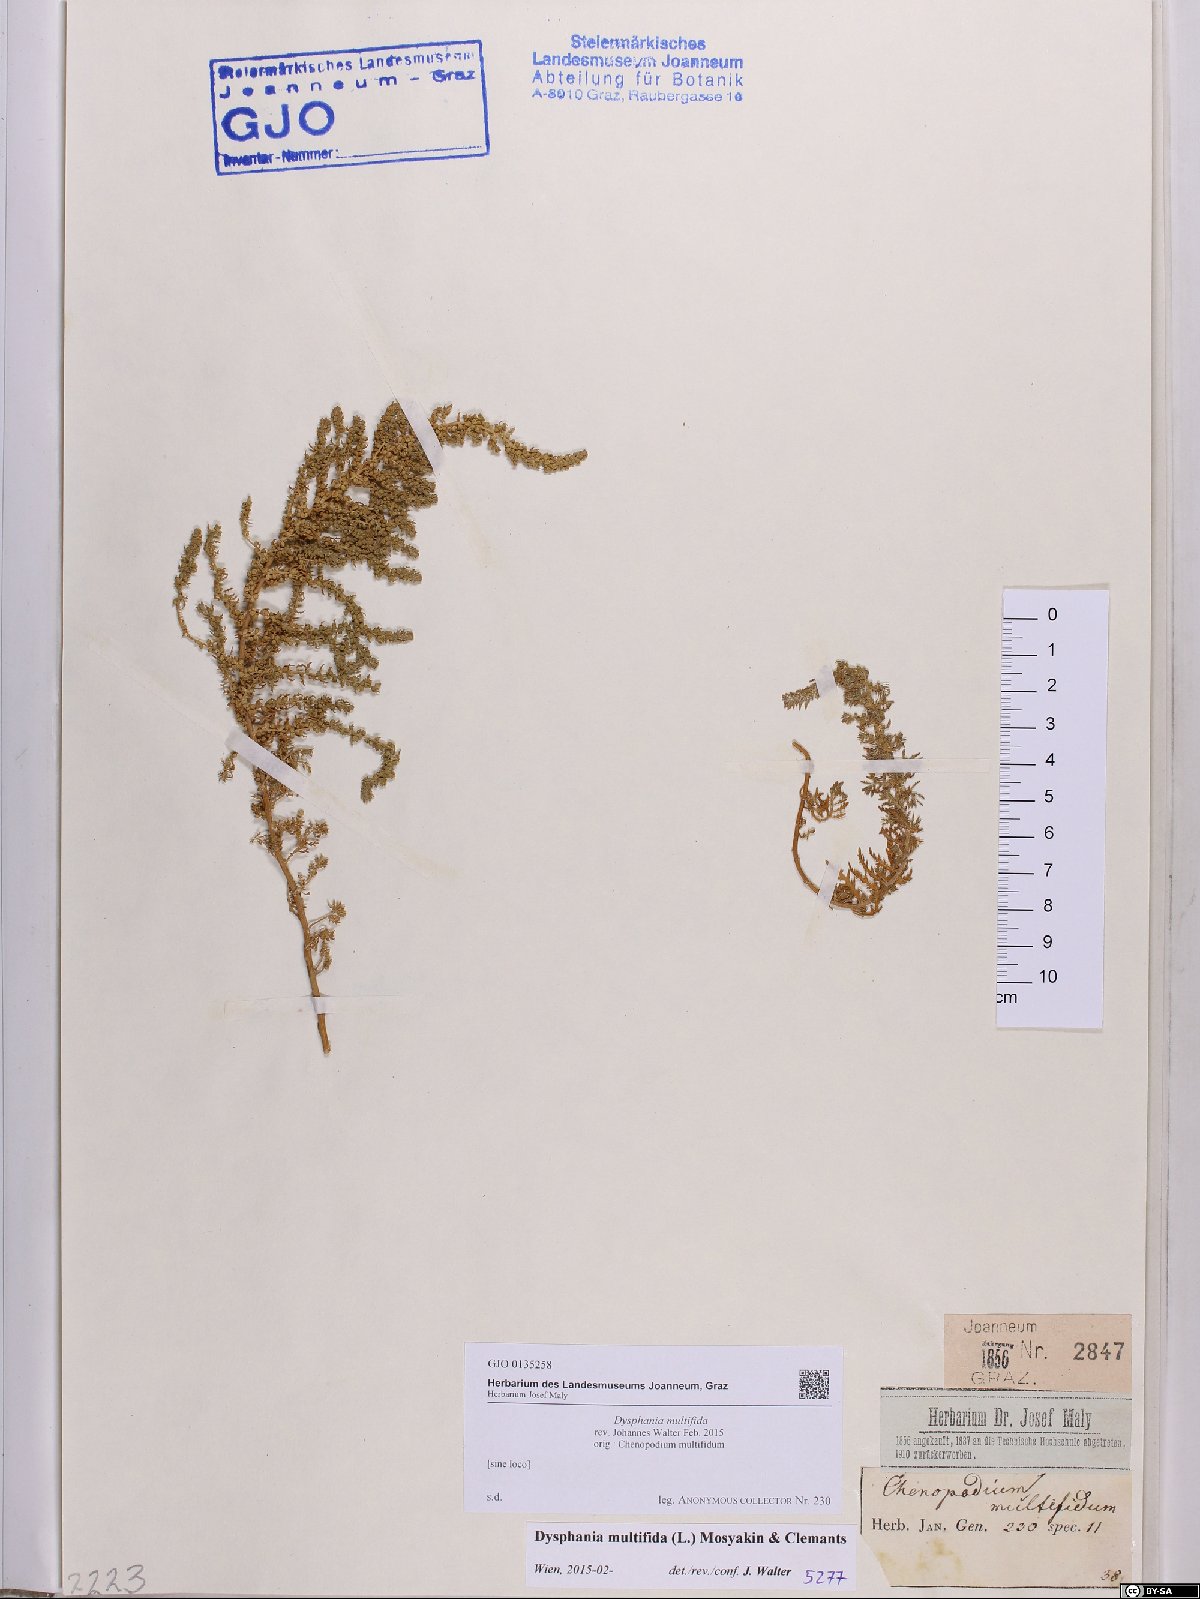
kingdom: Plantae
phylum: Tracheophyta
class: Magnoliopsida
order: Caryophyllales
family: Amaranthaceae
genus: Dysphania
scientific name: Dysphania multifida
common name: Cutleaf goosefoot
